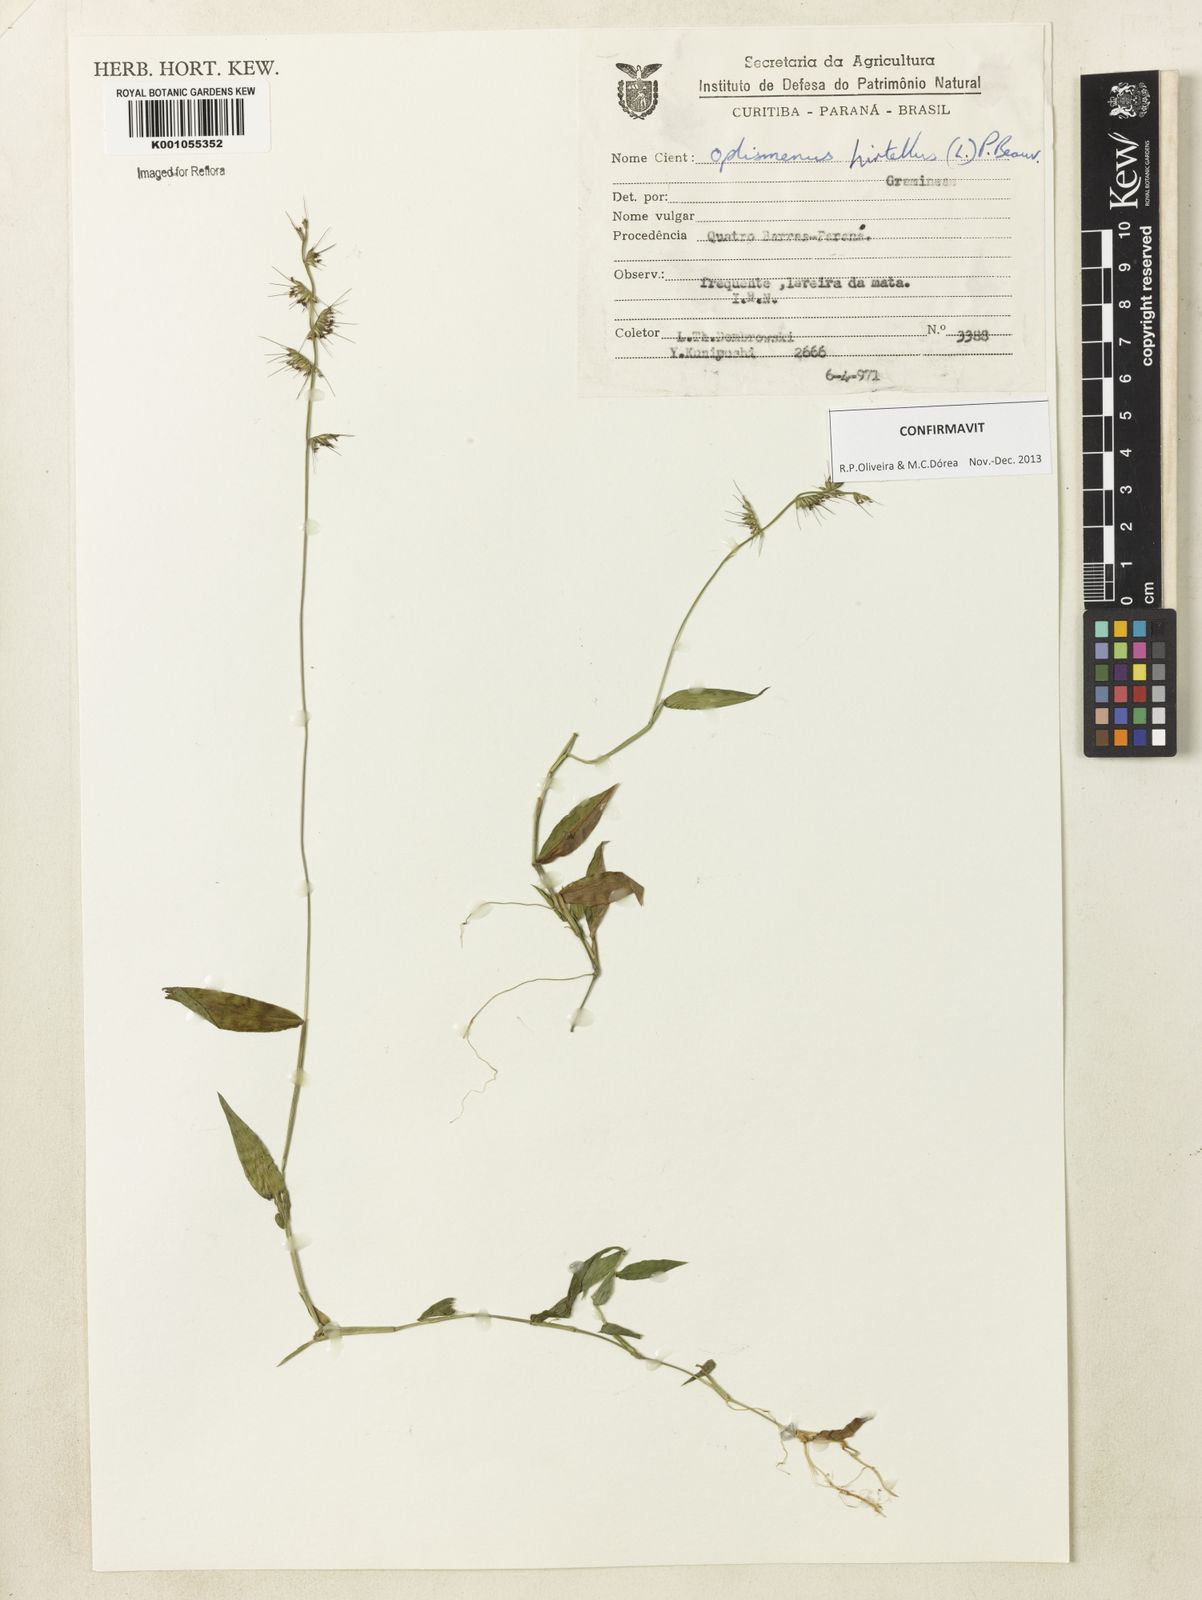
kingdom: Plantae
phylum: Tracheophyta
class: Liliopsida
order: Poales
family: Poaceae
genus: Oplismenus
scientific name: Oplismenus hirtellus
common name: Basketgrass
